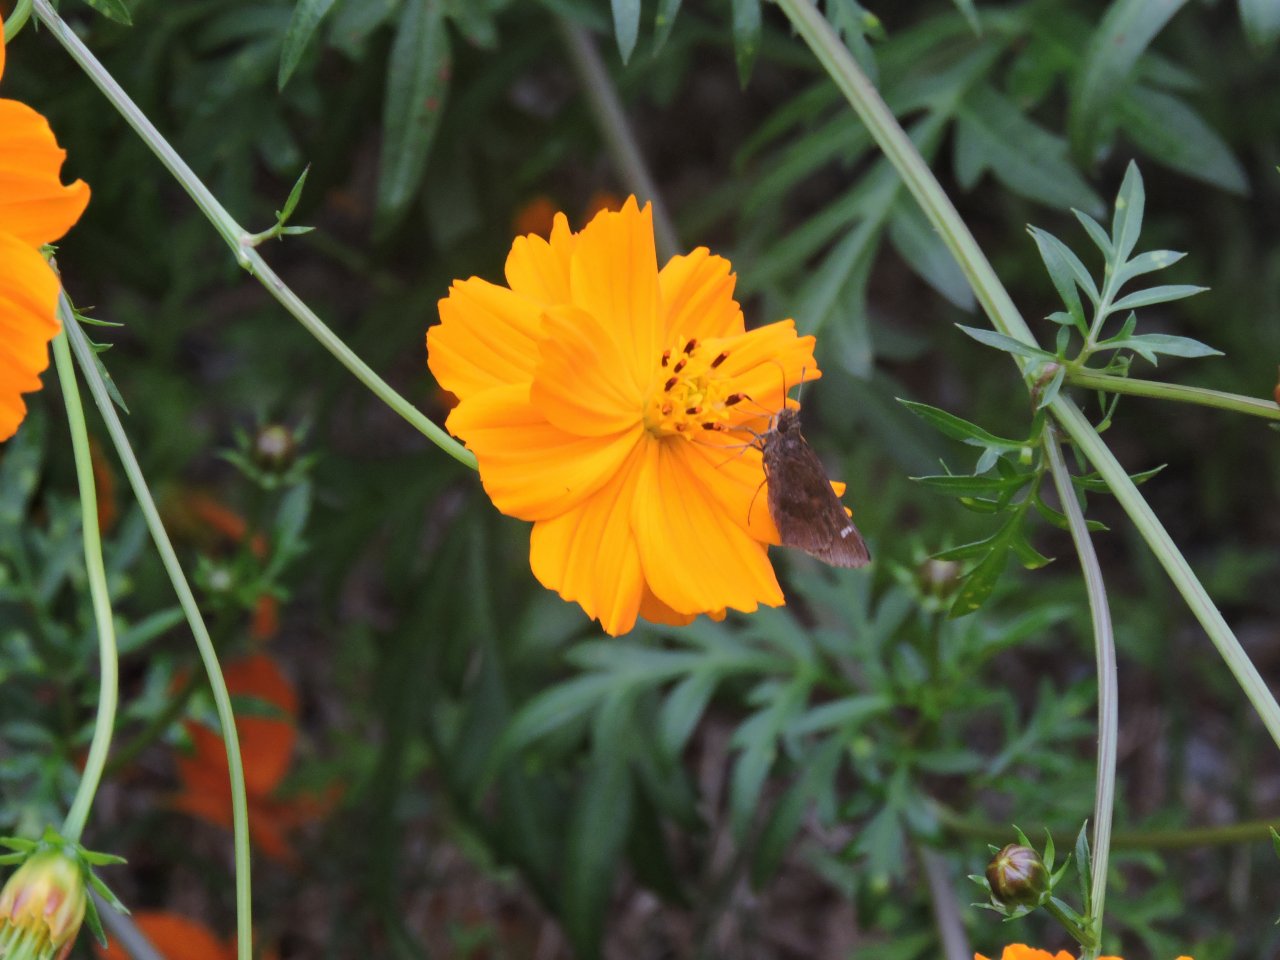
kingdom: Animalia
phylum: Arthropoda
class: Insecta
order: Lepidoptera
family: Hesperiidae
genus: Lerema
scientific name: Lerema accius
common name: Clouded Skipper
